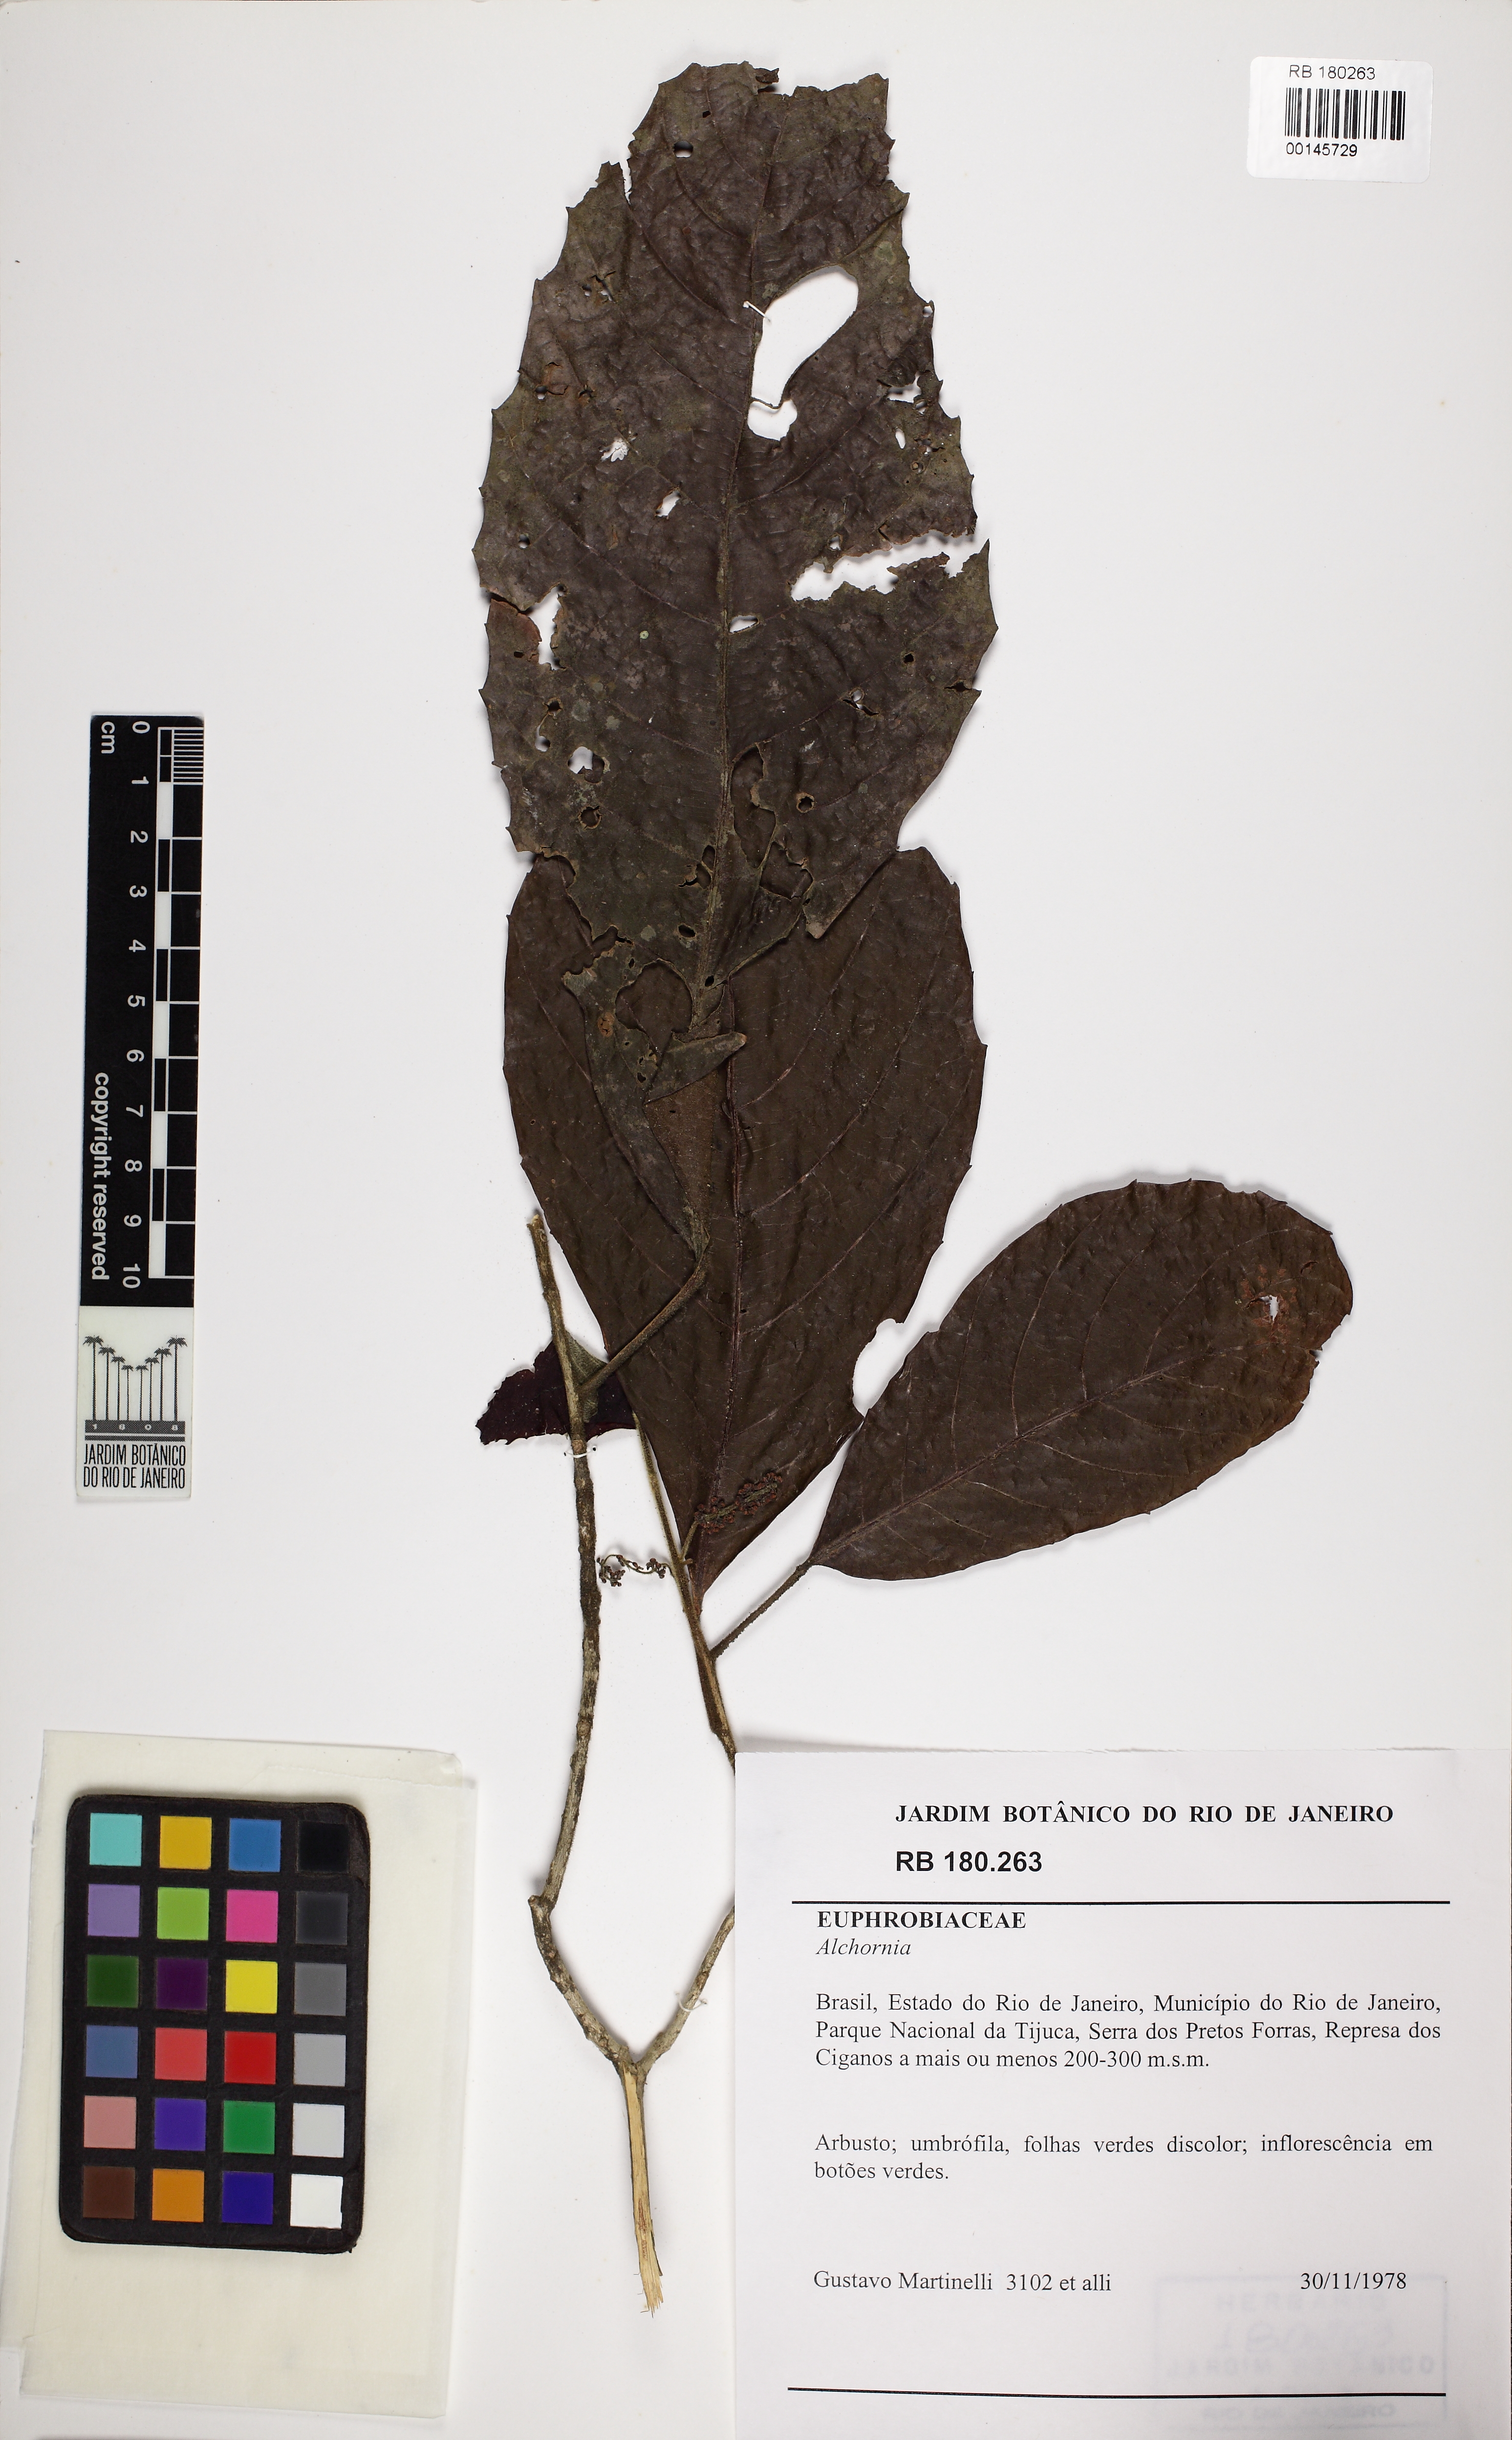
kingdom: Plantae
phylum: Tracheophyta
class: Magnoliopsida
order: Malpighiales
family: Euphorbiaceae
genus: Alchornea
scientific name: Alchornea
